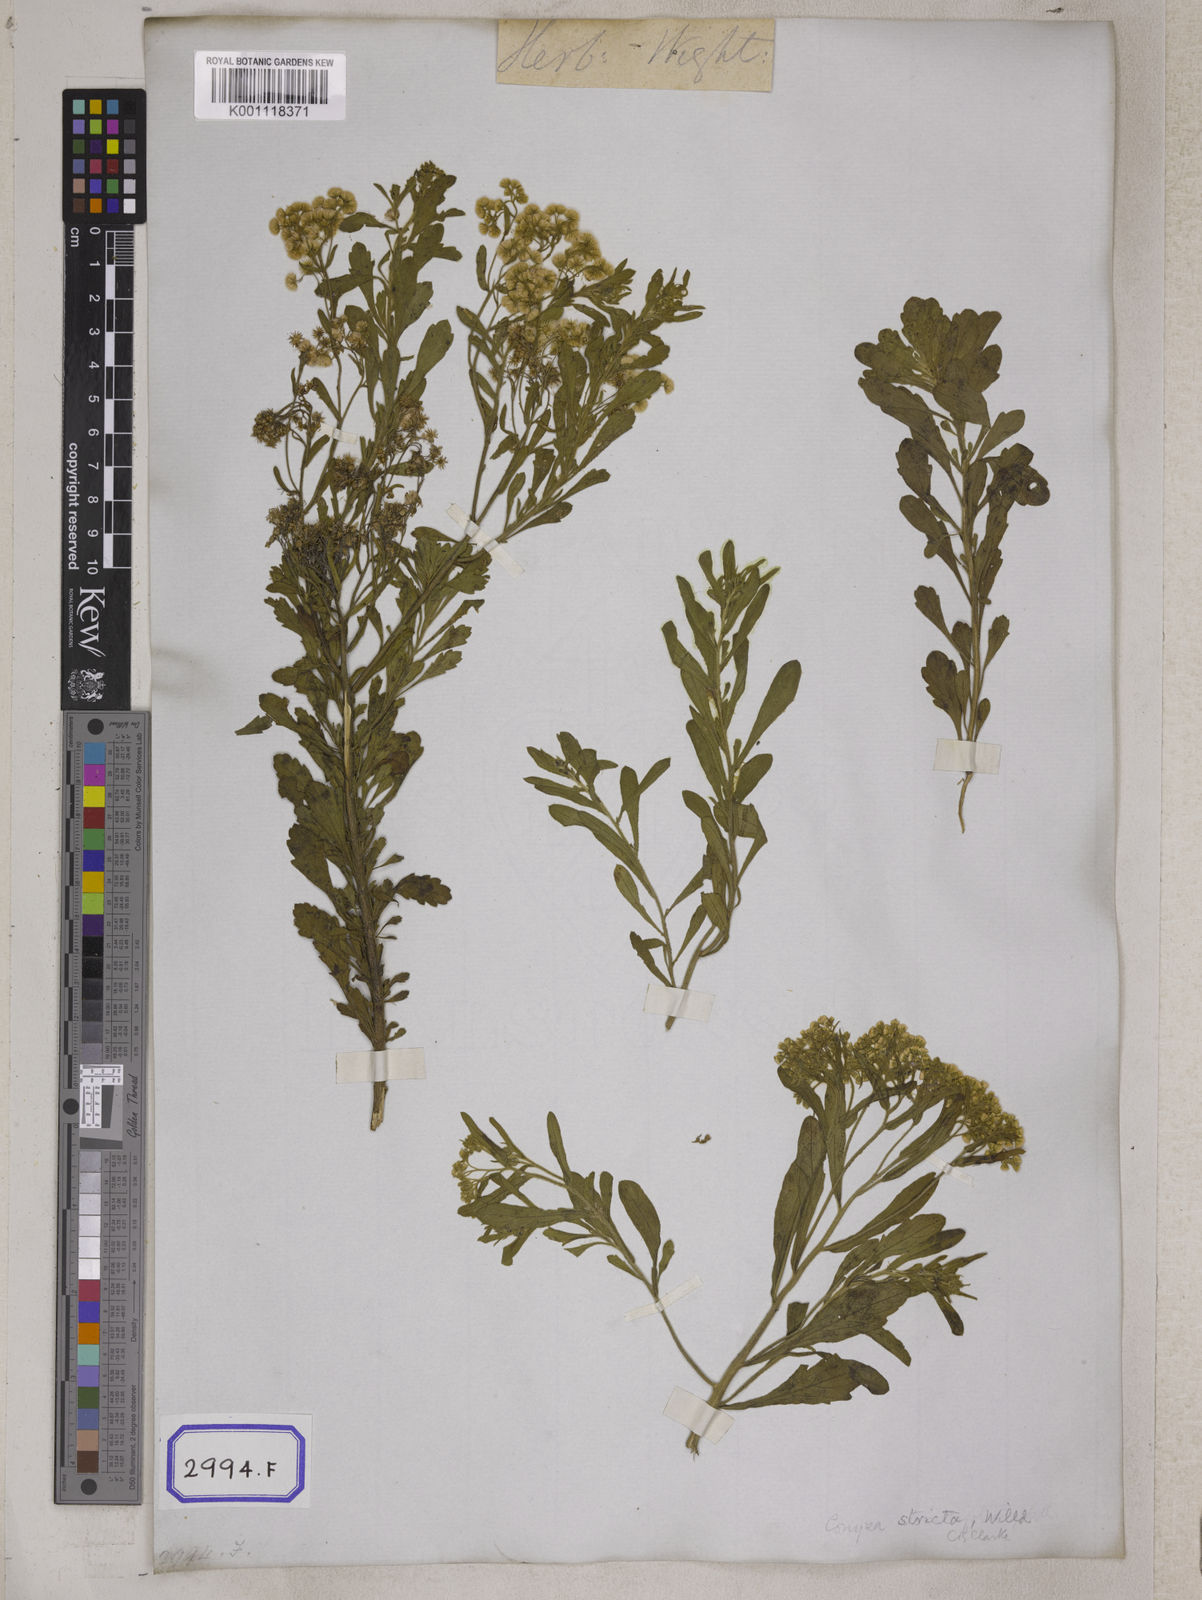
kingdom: Plantae
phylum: Tracheophyta
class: Magnoliopsida
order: Asterales
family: Asteraceae
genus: Nidorella
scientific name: Nidorella triloba
